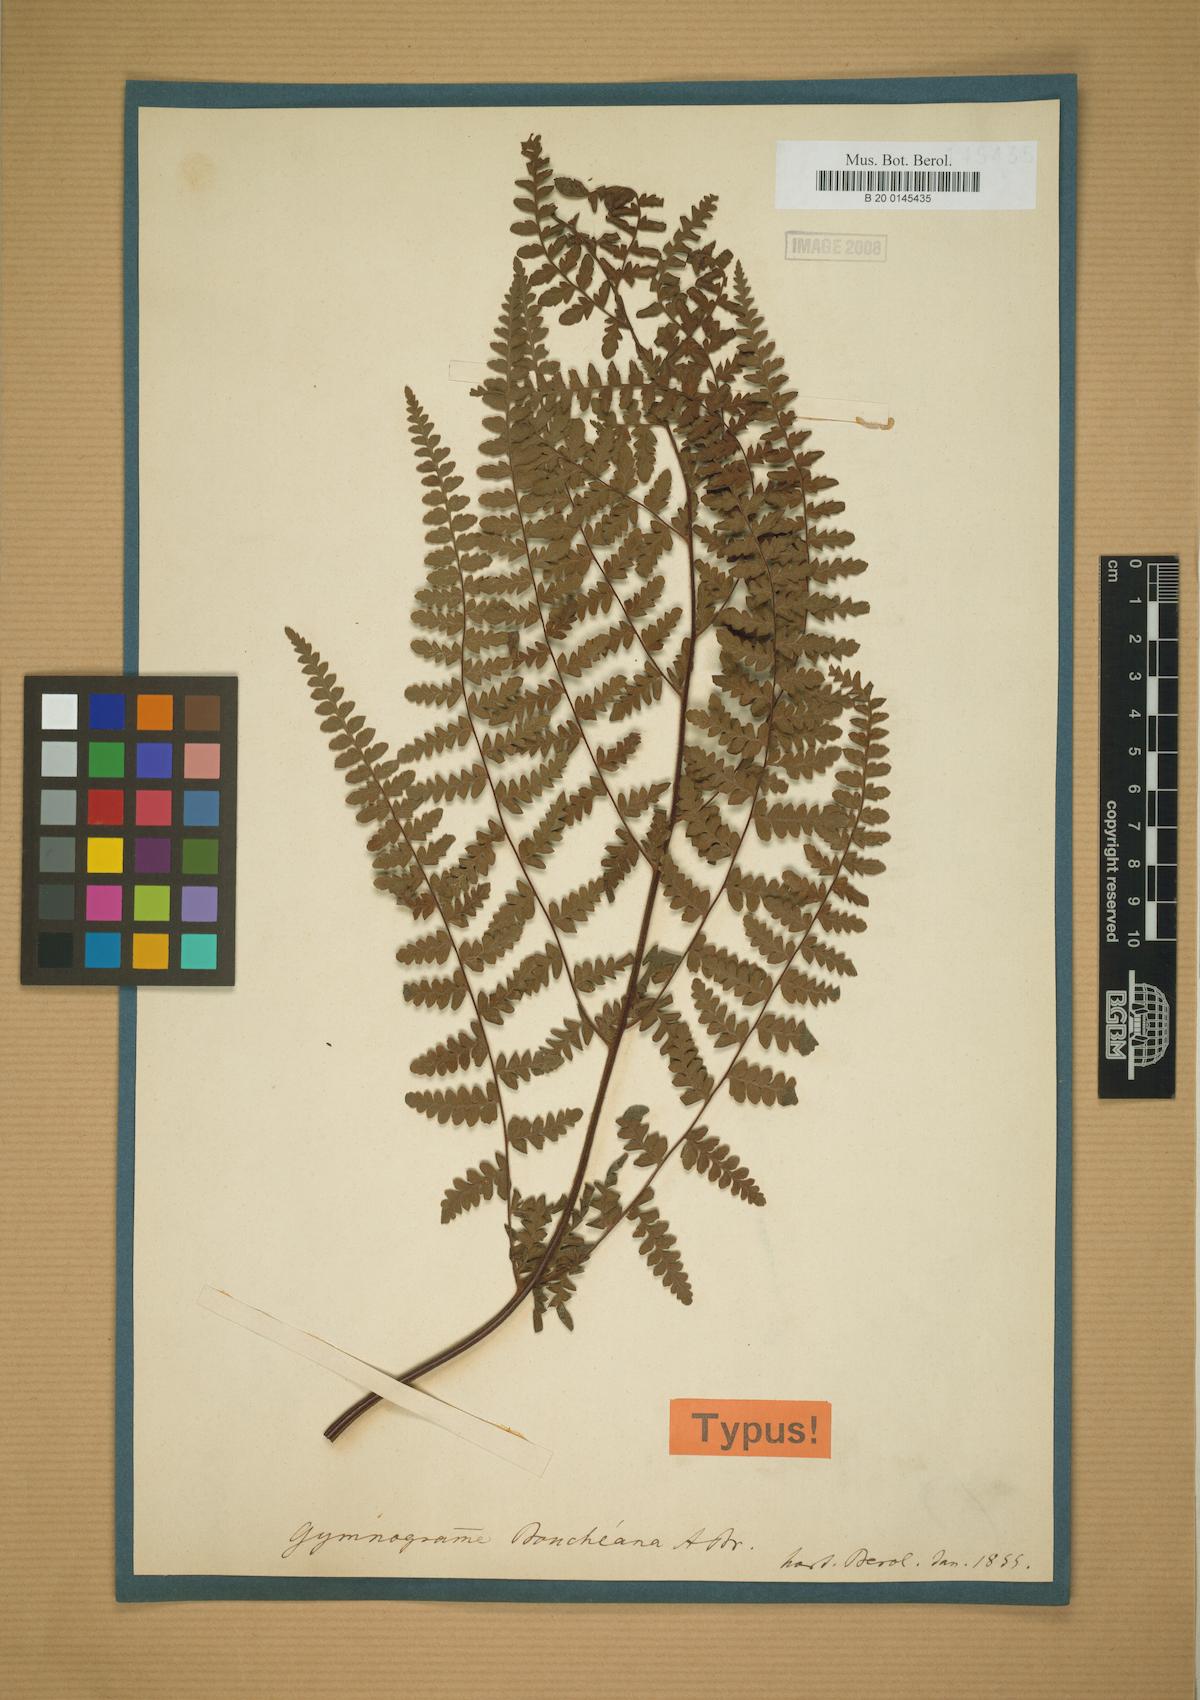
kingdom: Plantae
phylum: Tracheophyta
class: Polypodiopsida
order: Polypodiales
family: Adiantaceae
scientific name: Adiantaceae
